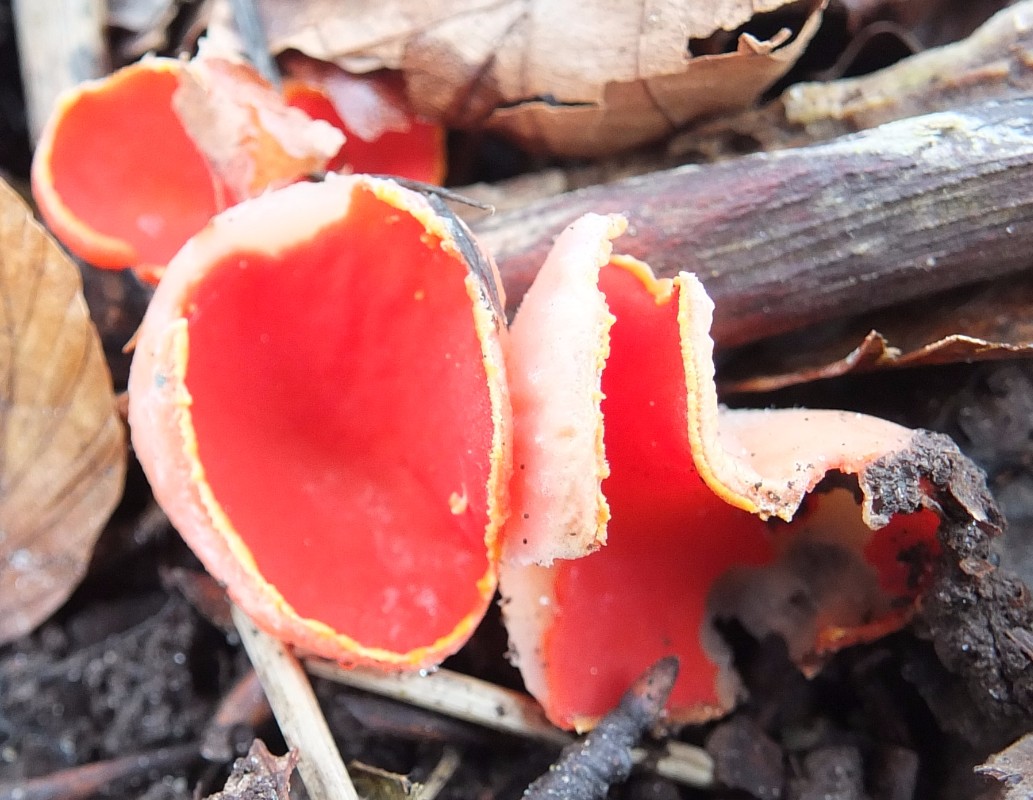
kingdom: Fungi
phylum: Ascomycota
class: Pezizomycetes
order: Pezizales
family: Sarcoscyphaceae
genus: Sarcoscypha
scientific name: Sarcoscypha coccinea
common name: skarlagen-pragtbæger
